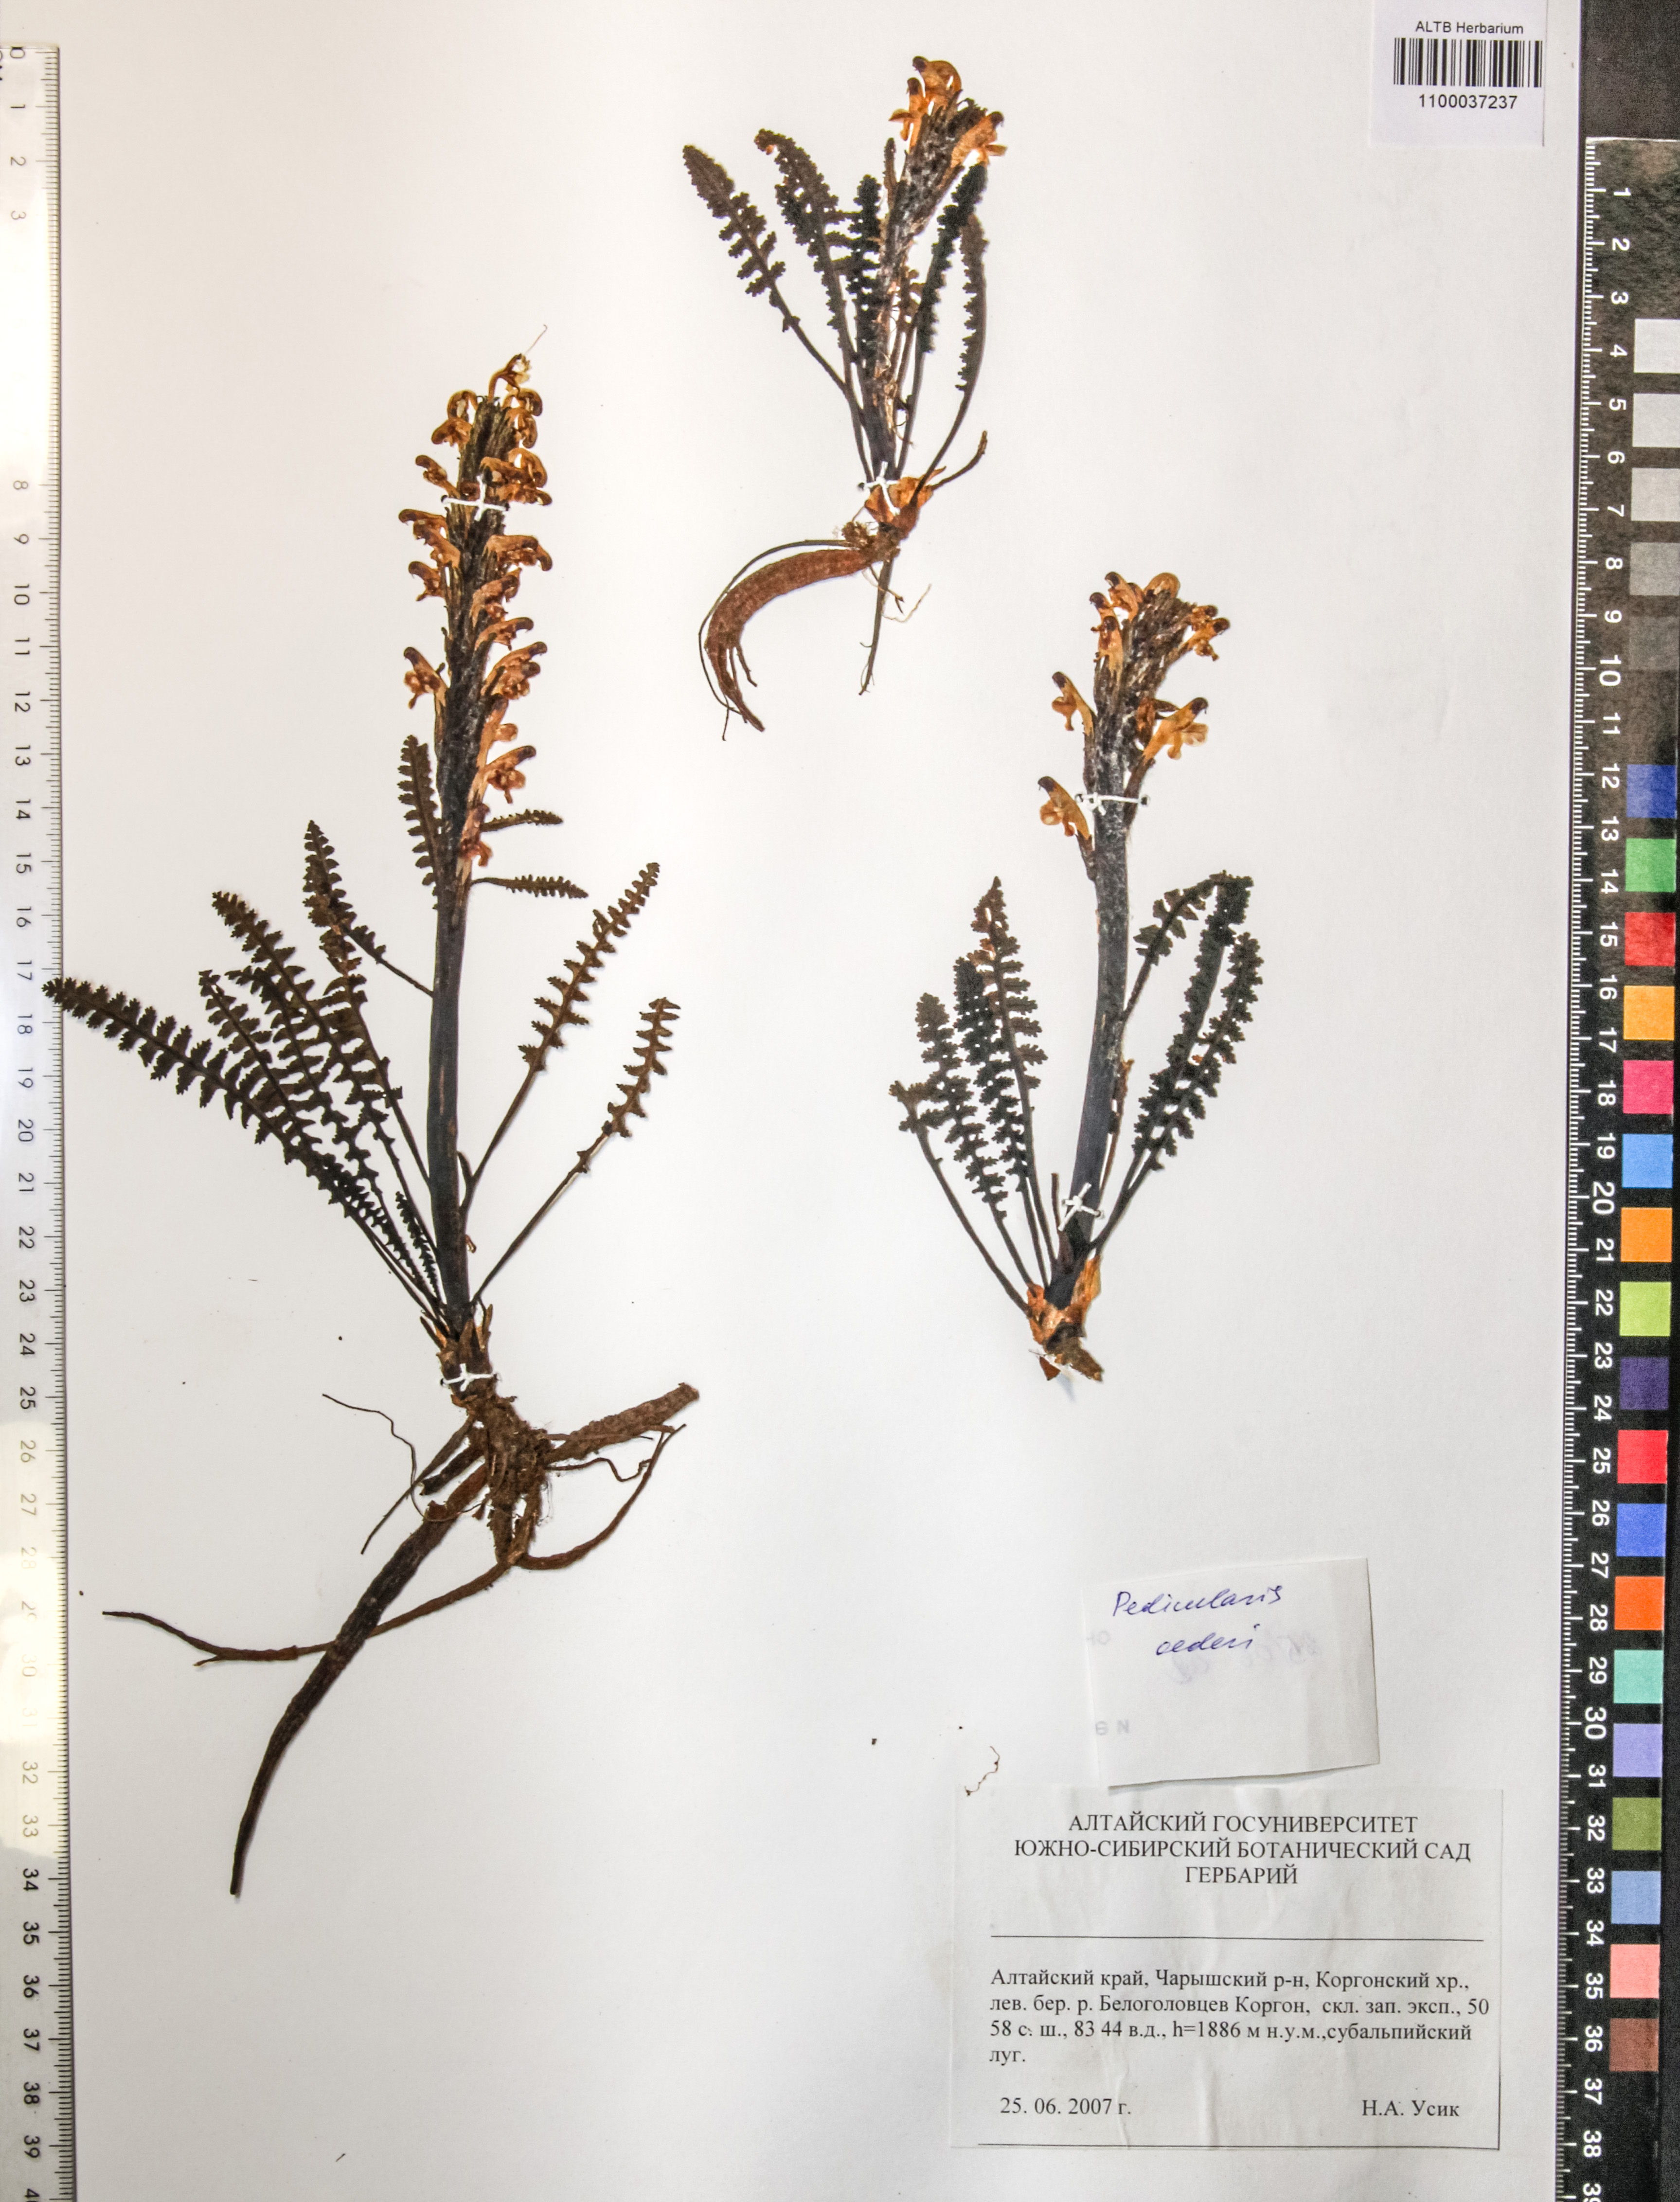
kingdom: Plantae
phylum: Tracheophyta
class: Magnoliopsida
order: Caryophyllales
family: Caryophyllaceae
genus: Silene
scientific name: Silene graminifolia
